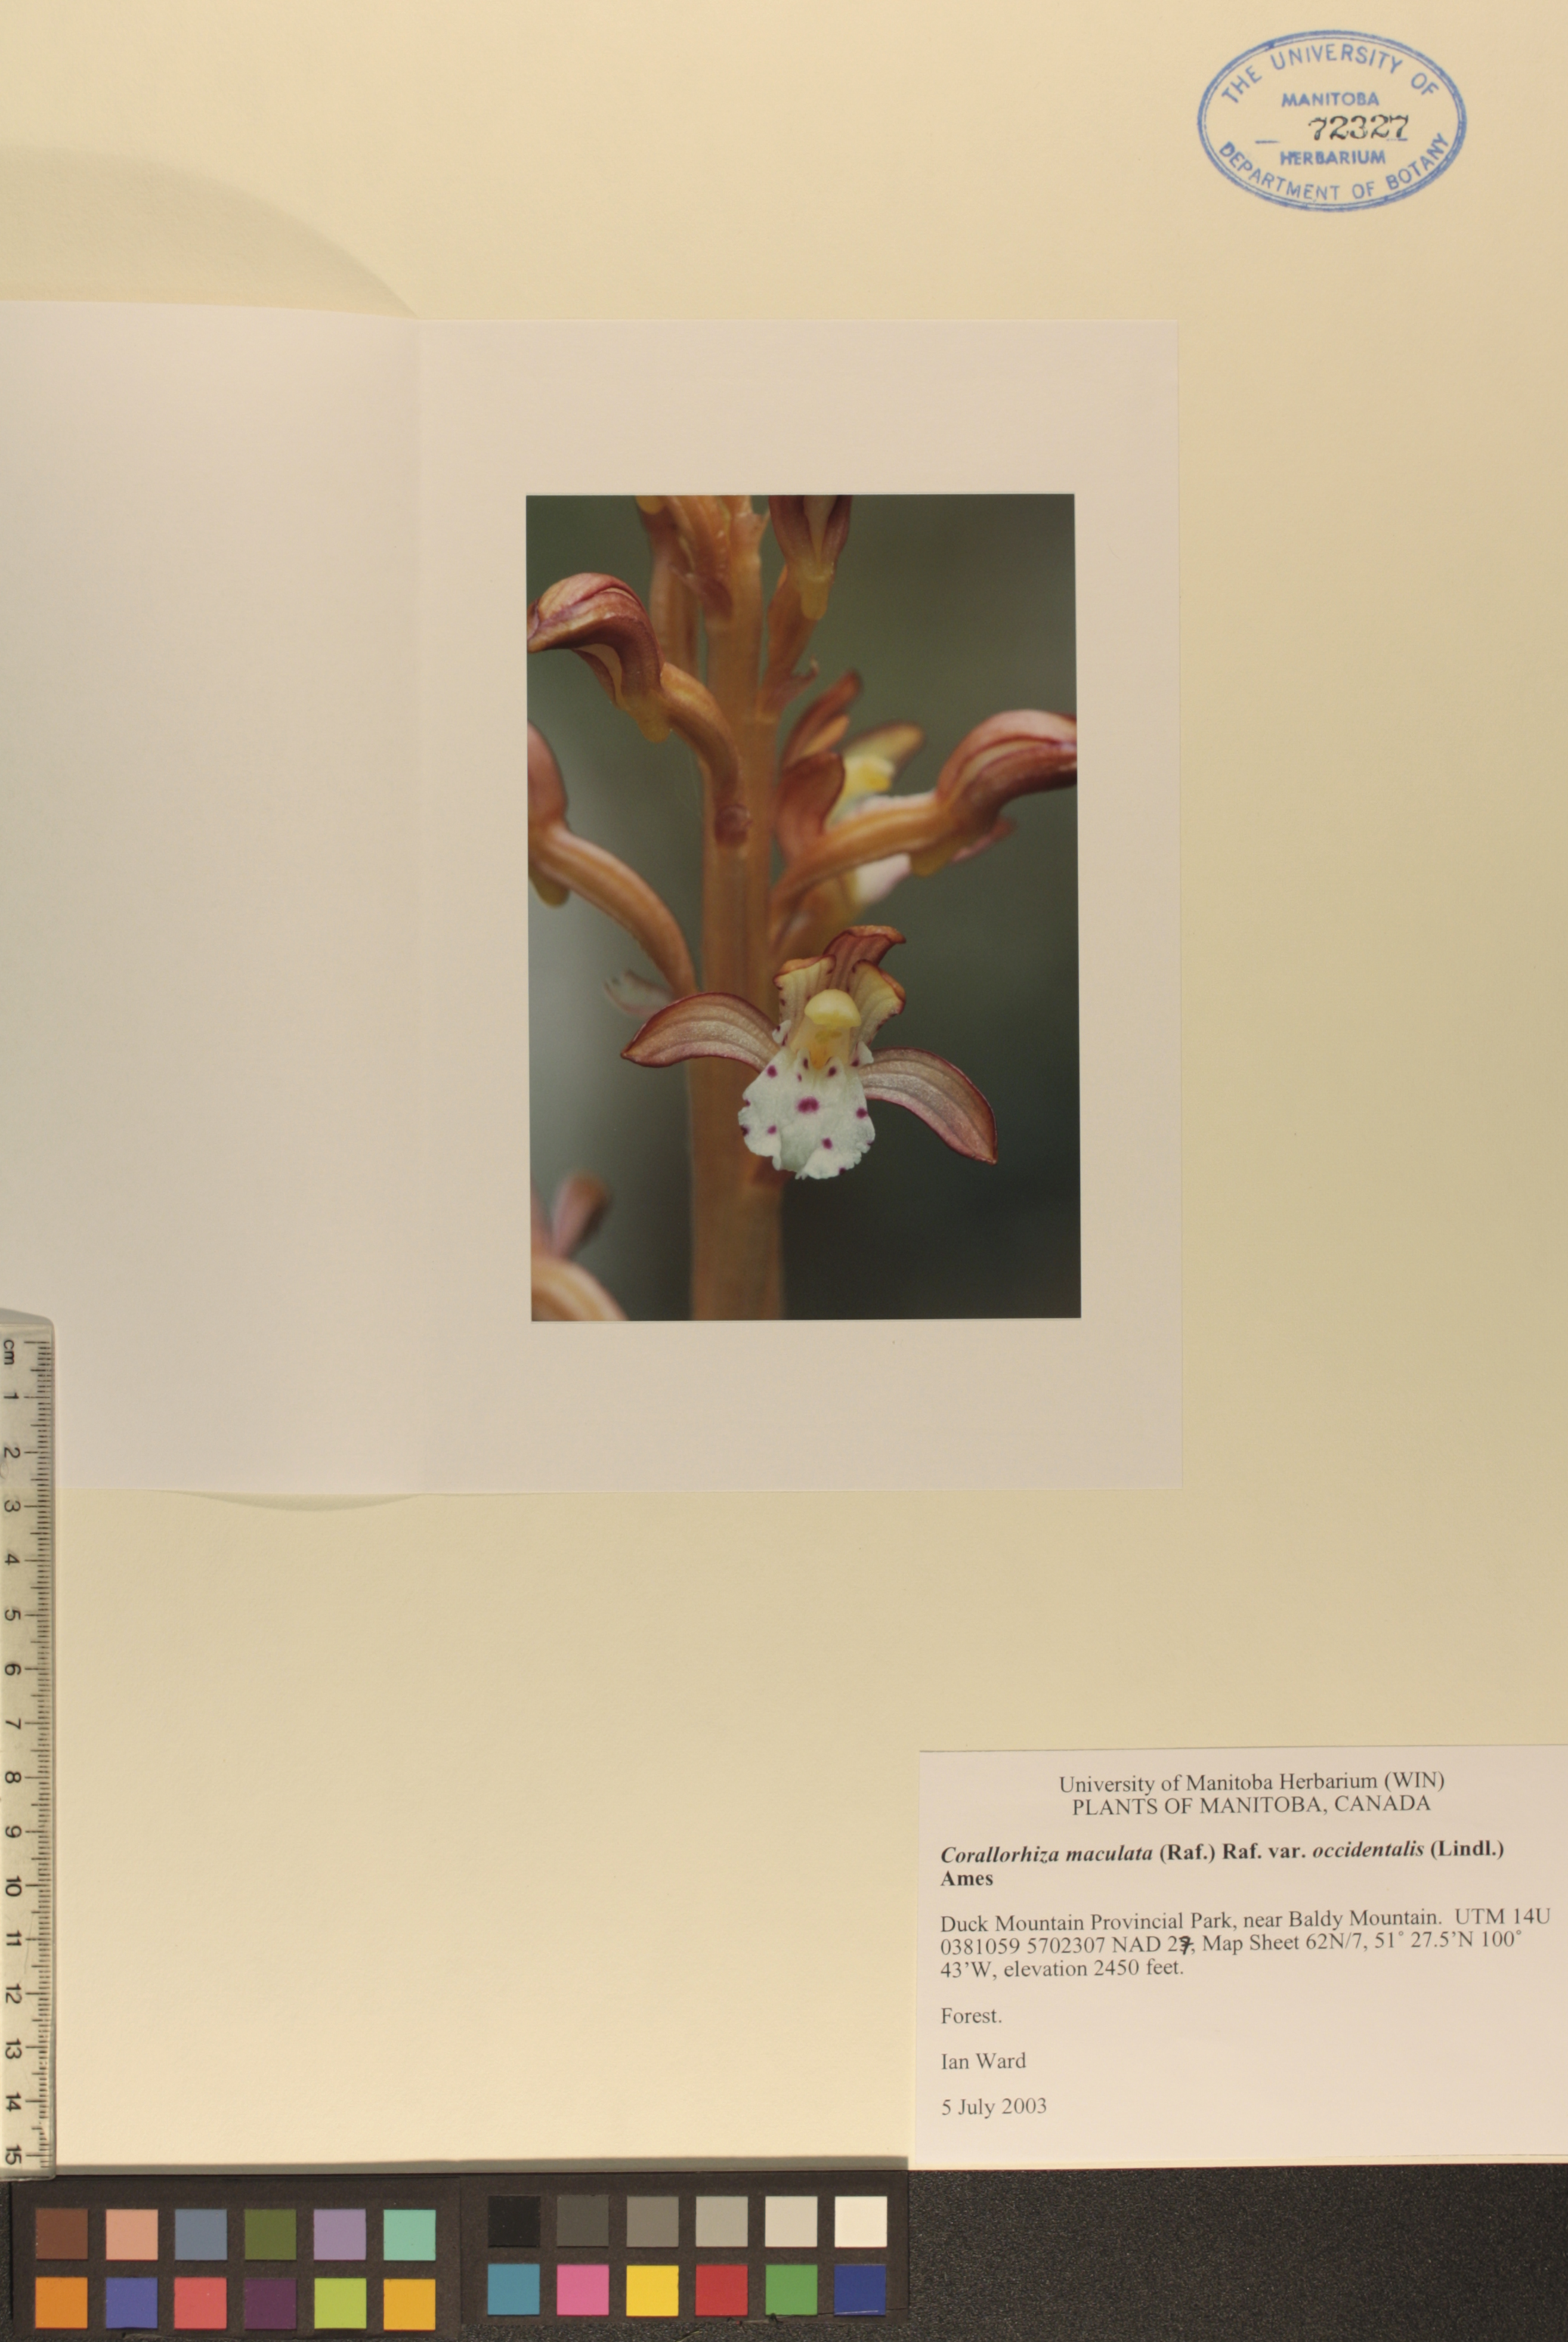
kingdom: Plantae
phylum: Tracheophyta
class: Liliopsida
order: Asparagales
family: Orchidaceae
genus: Corallorhiza
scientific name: Corallorhiza maculata
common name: Spotted coralroot
